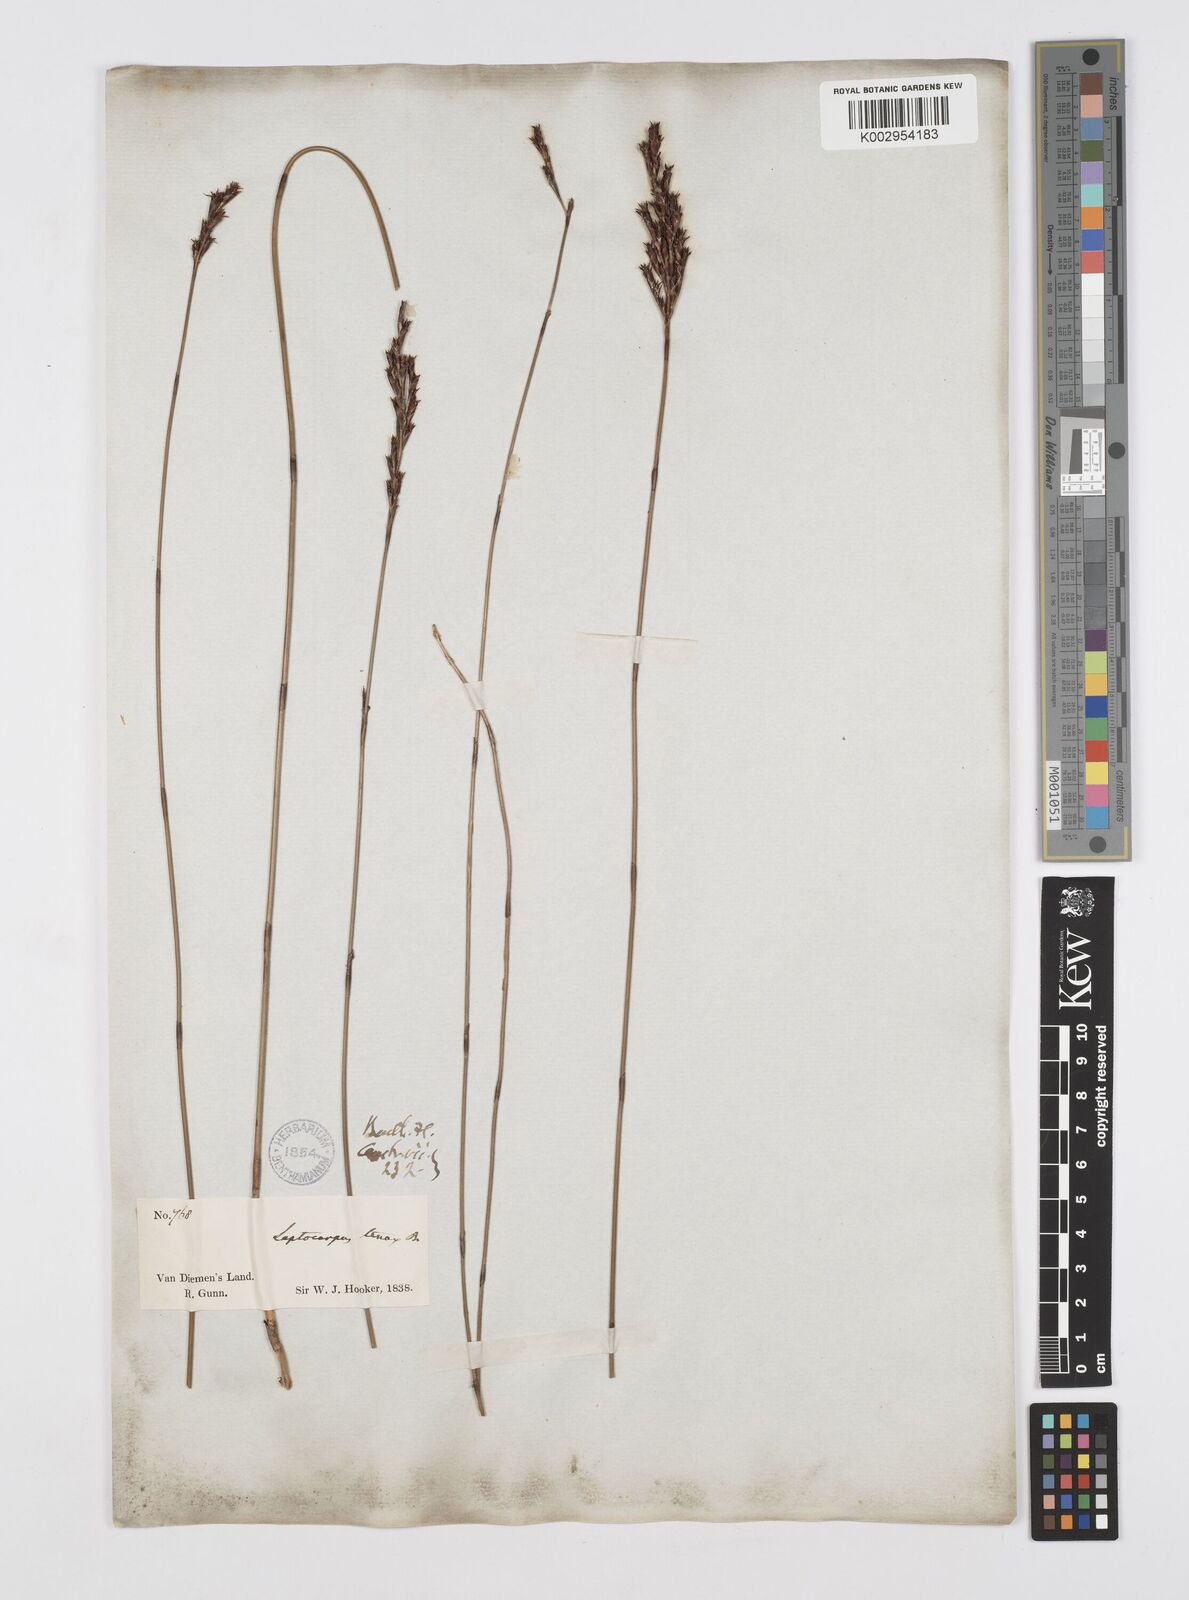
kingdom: Plantae
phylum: Tracheophyta
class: Liliopsida
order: Poales
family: Restionaceae
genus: Leptocarpus
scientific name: Leptocarpus tenax
